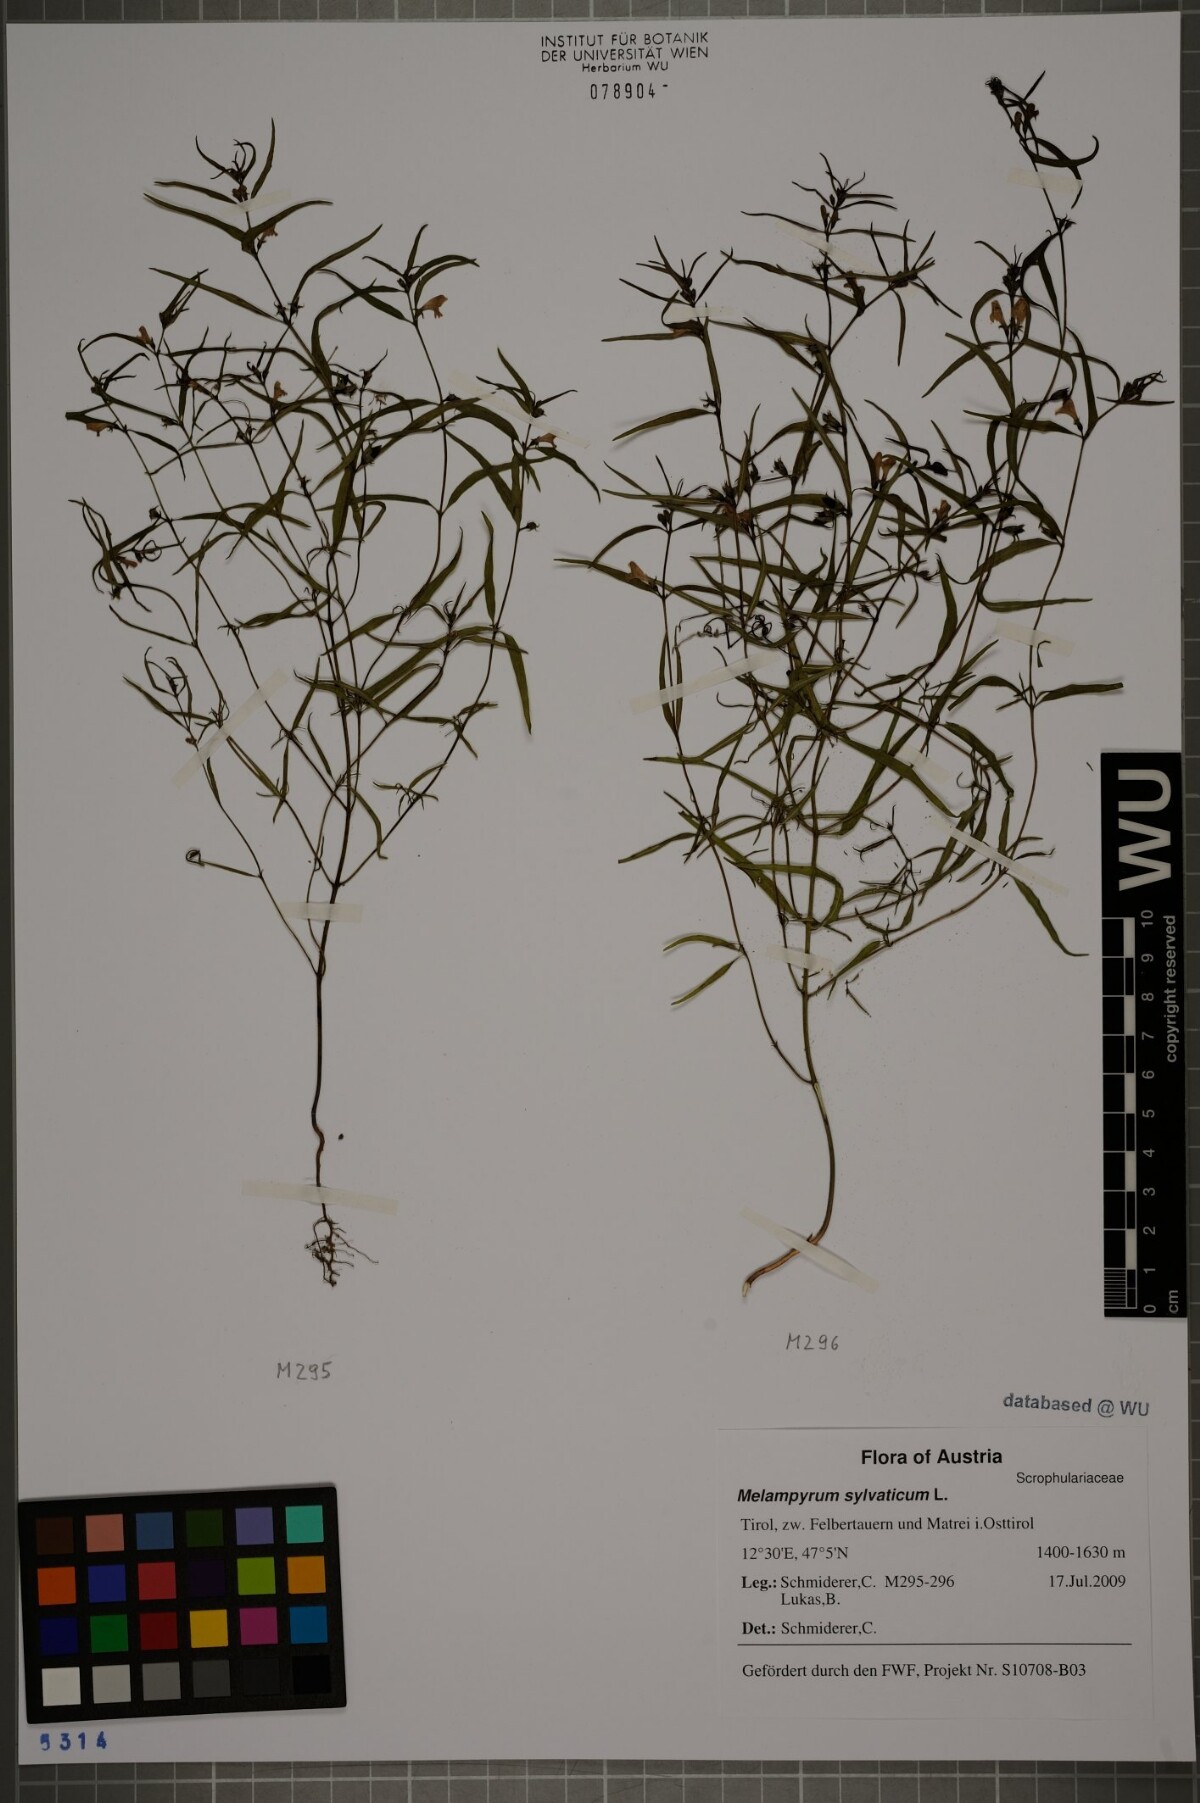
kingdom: Plantae
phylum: Tracheophyta
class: Magnoliopsida
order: Lamiales
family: Orobanchaceae
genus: Melampyrum
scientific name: Melampyrum sylvaticum
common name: Small cow-wheat
